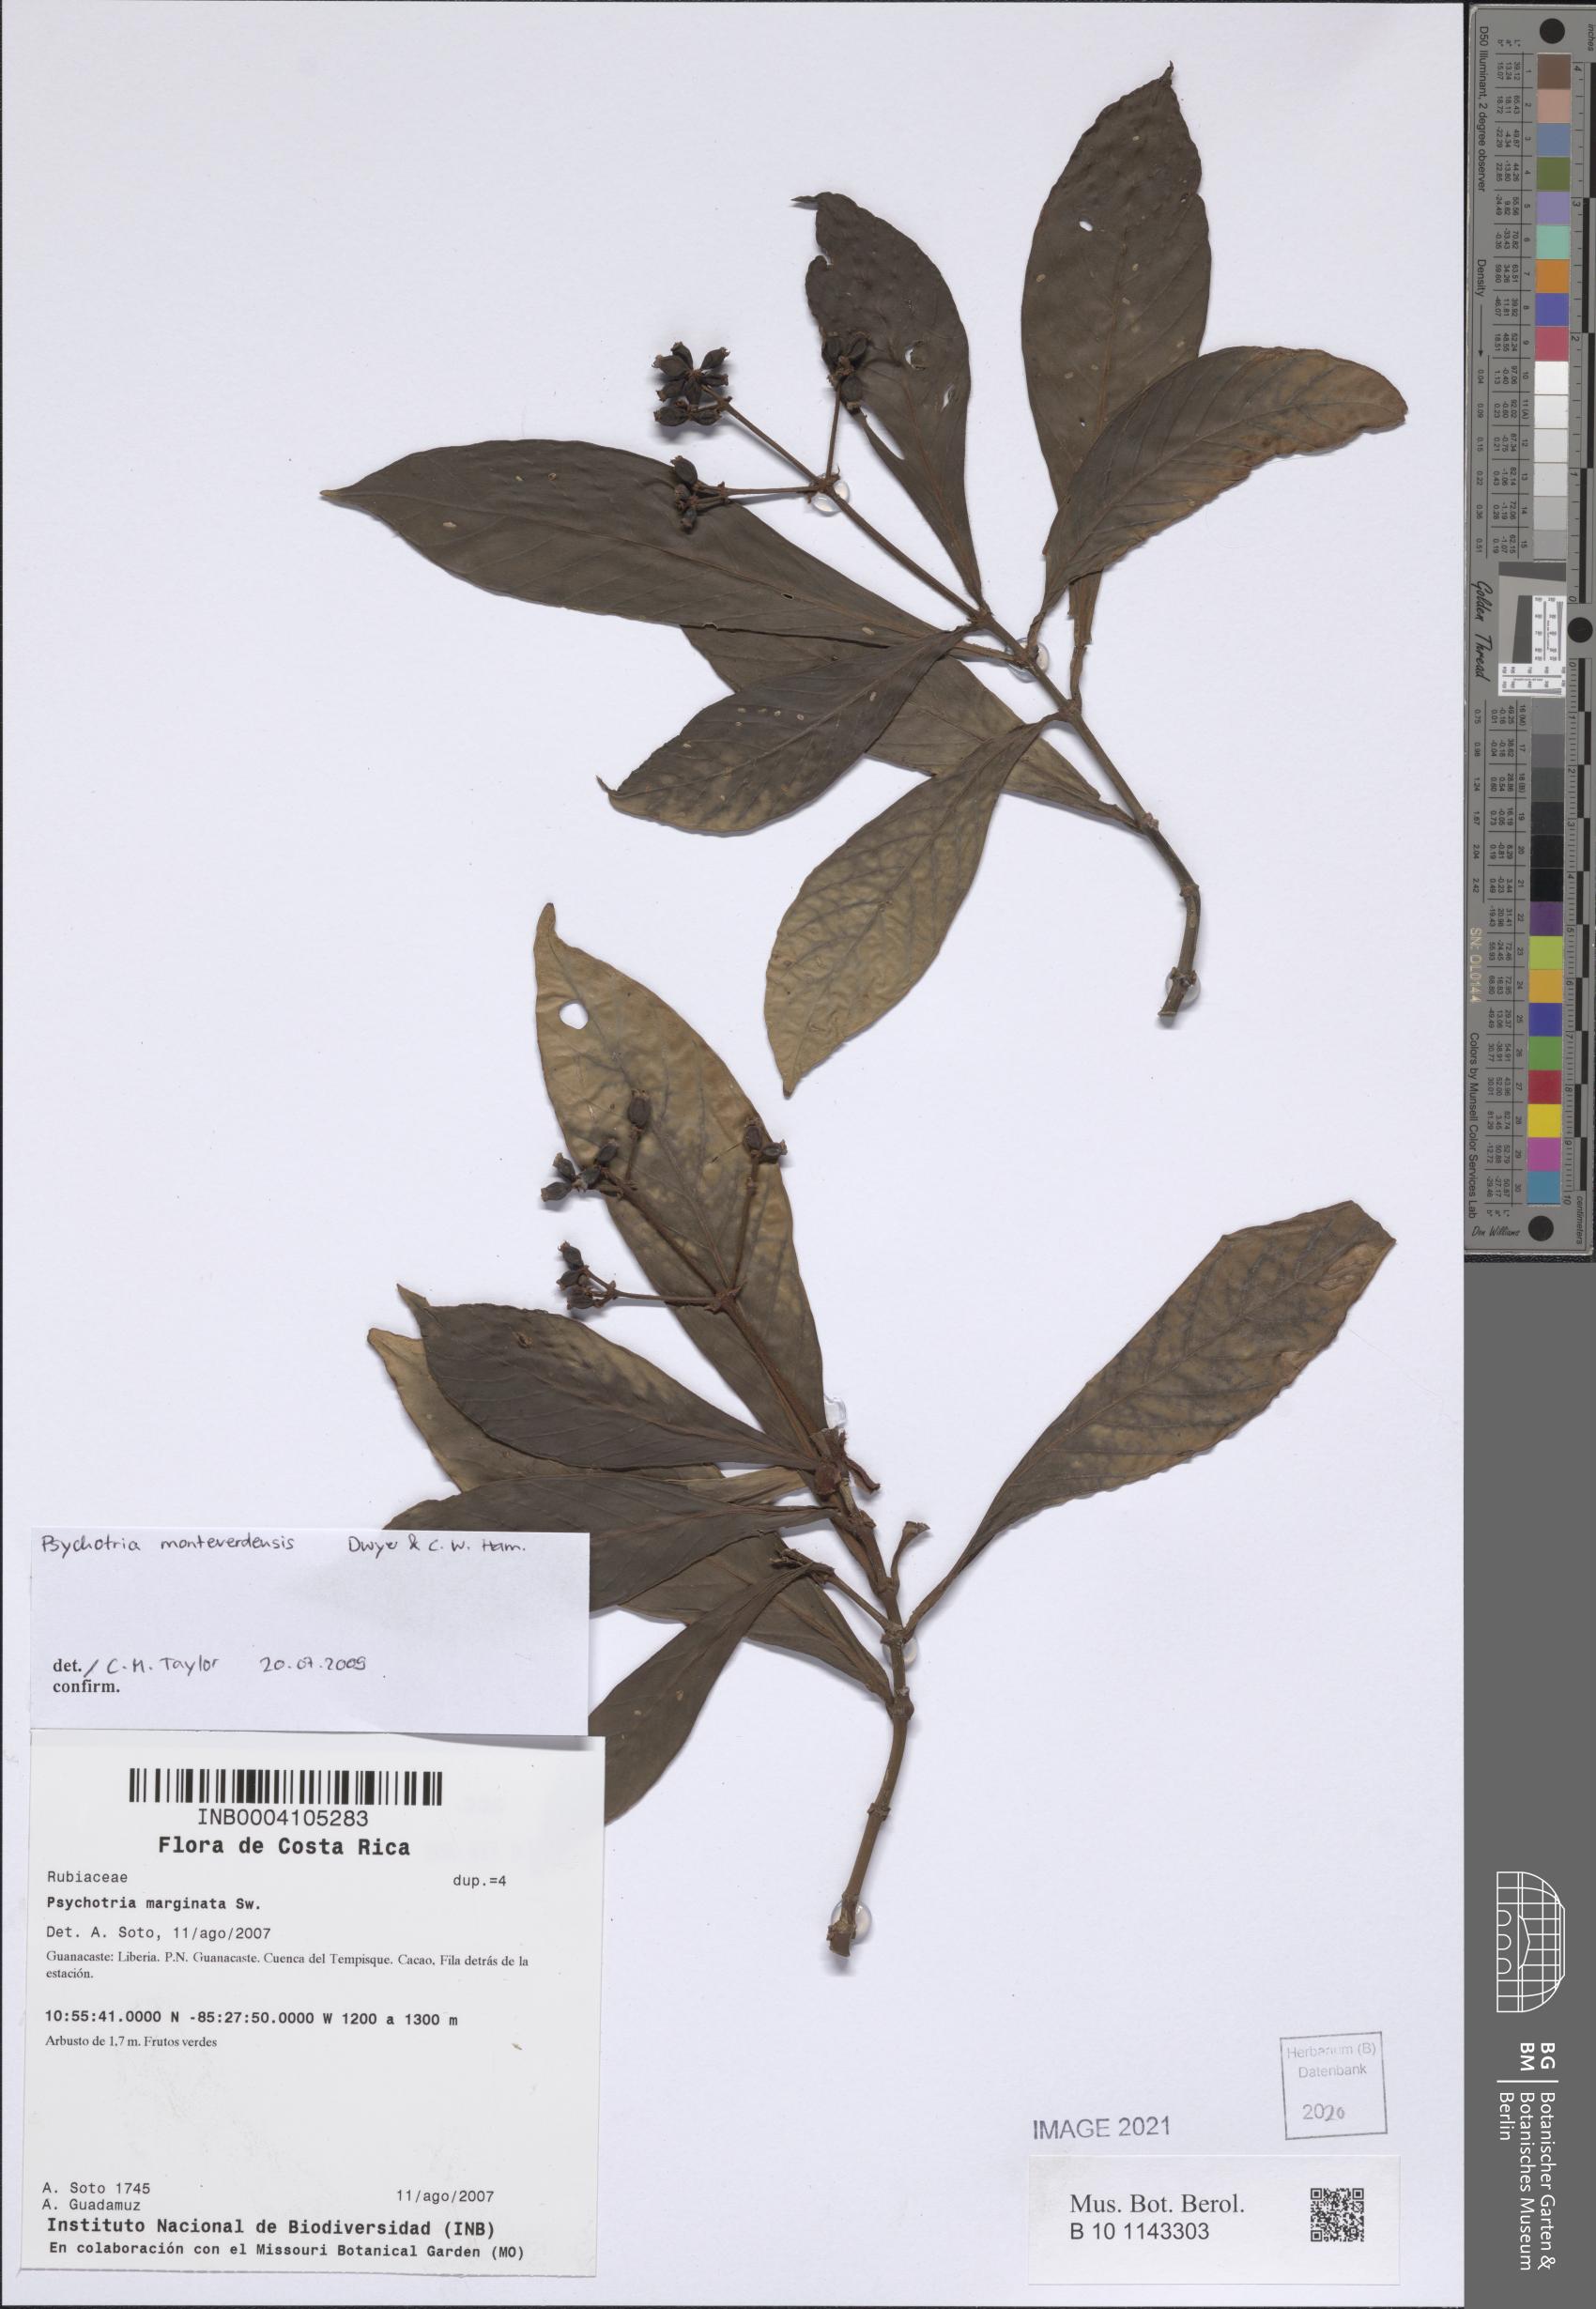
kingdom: Plantae
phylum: Tracheophyta
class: Magnoliopsida
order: Gentianales
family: Rubiaceae
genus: Psychotria
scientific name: Psychotria monteverdensis
